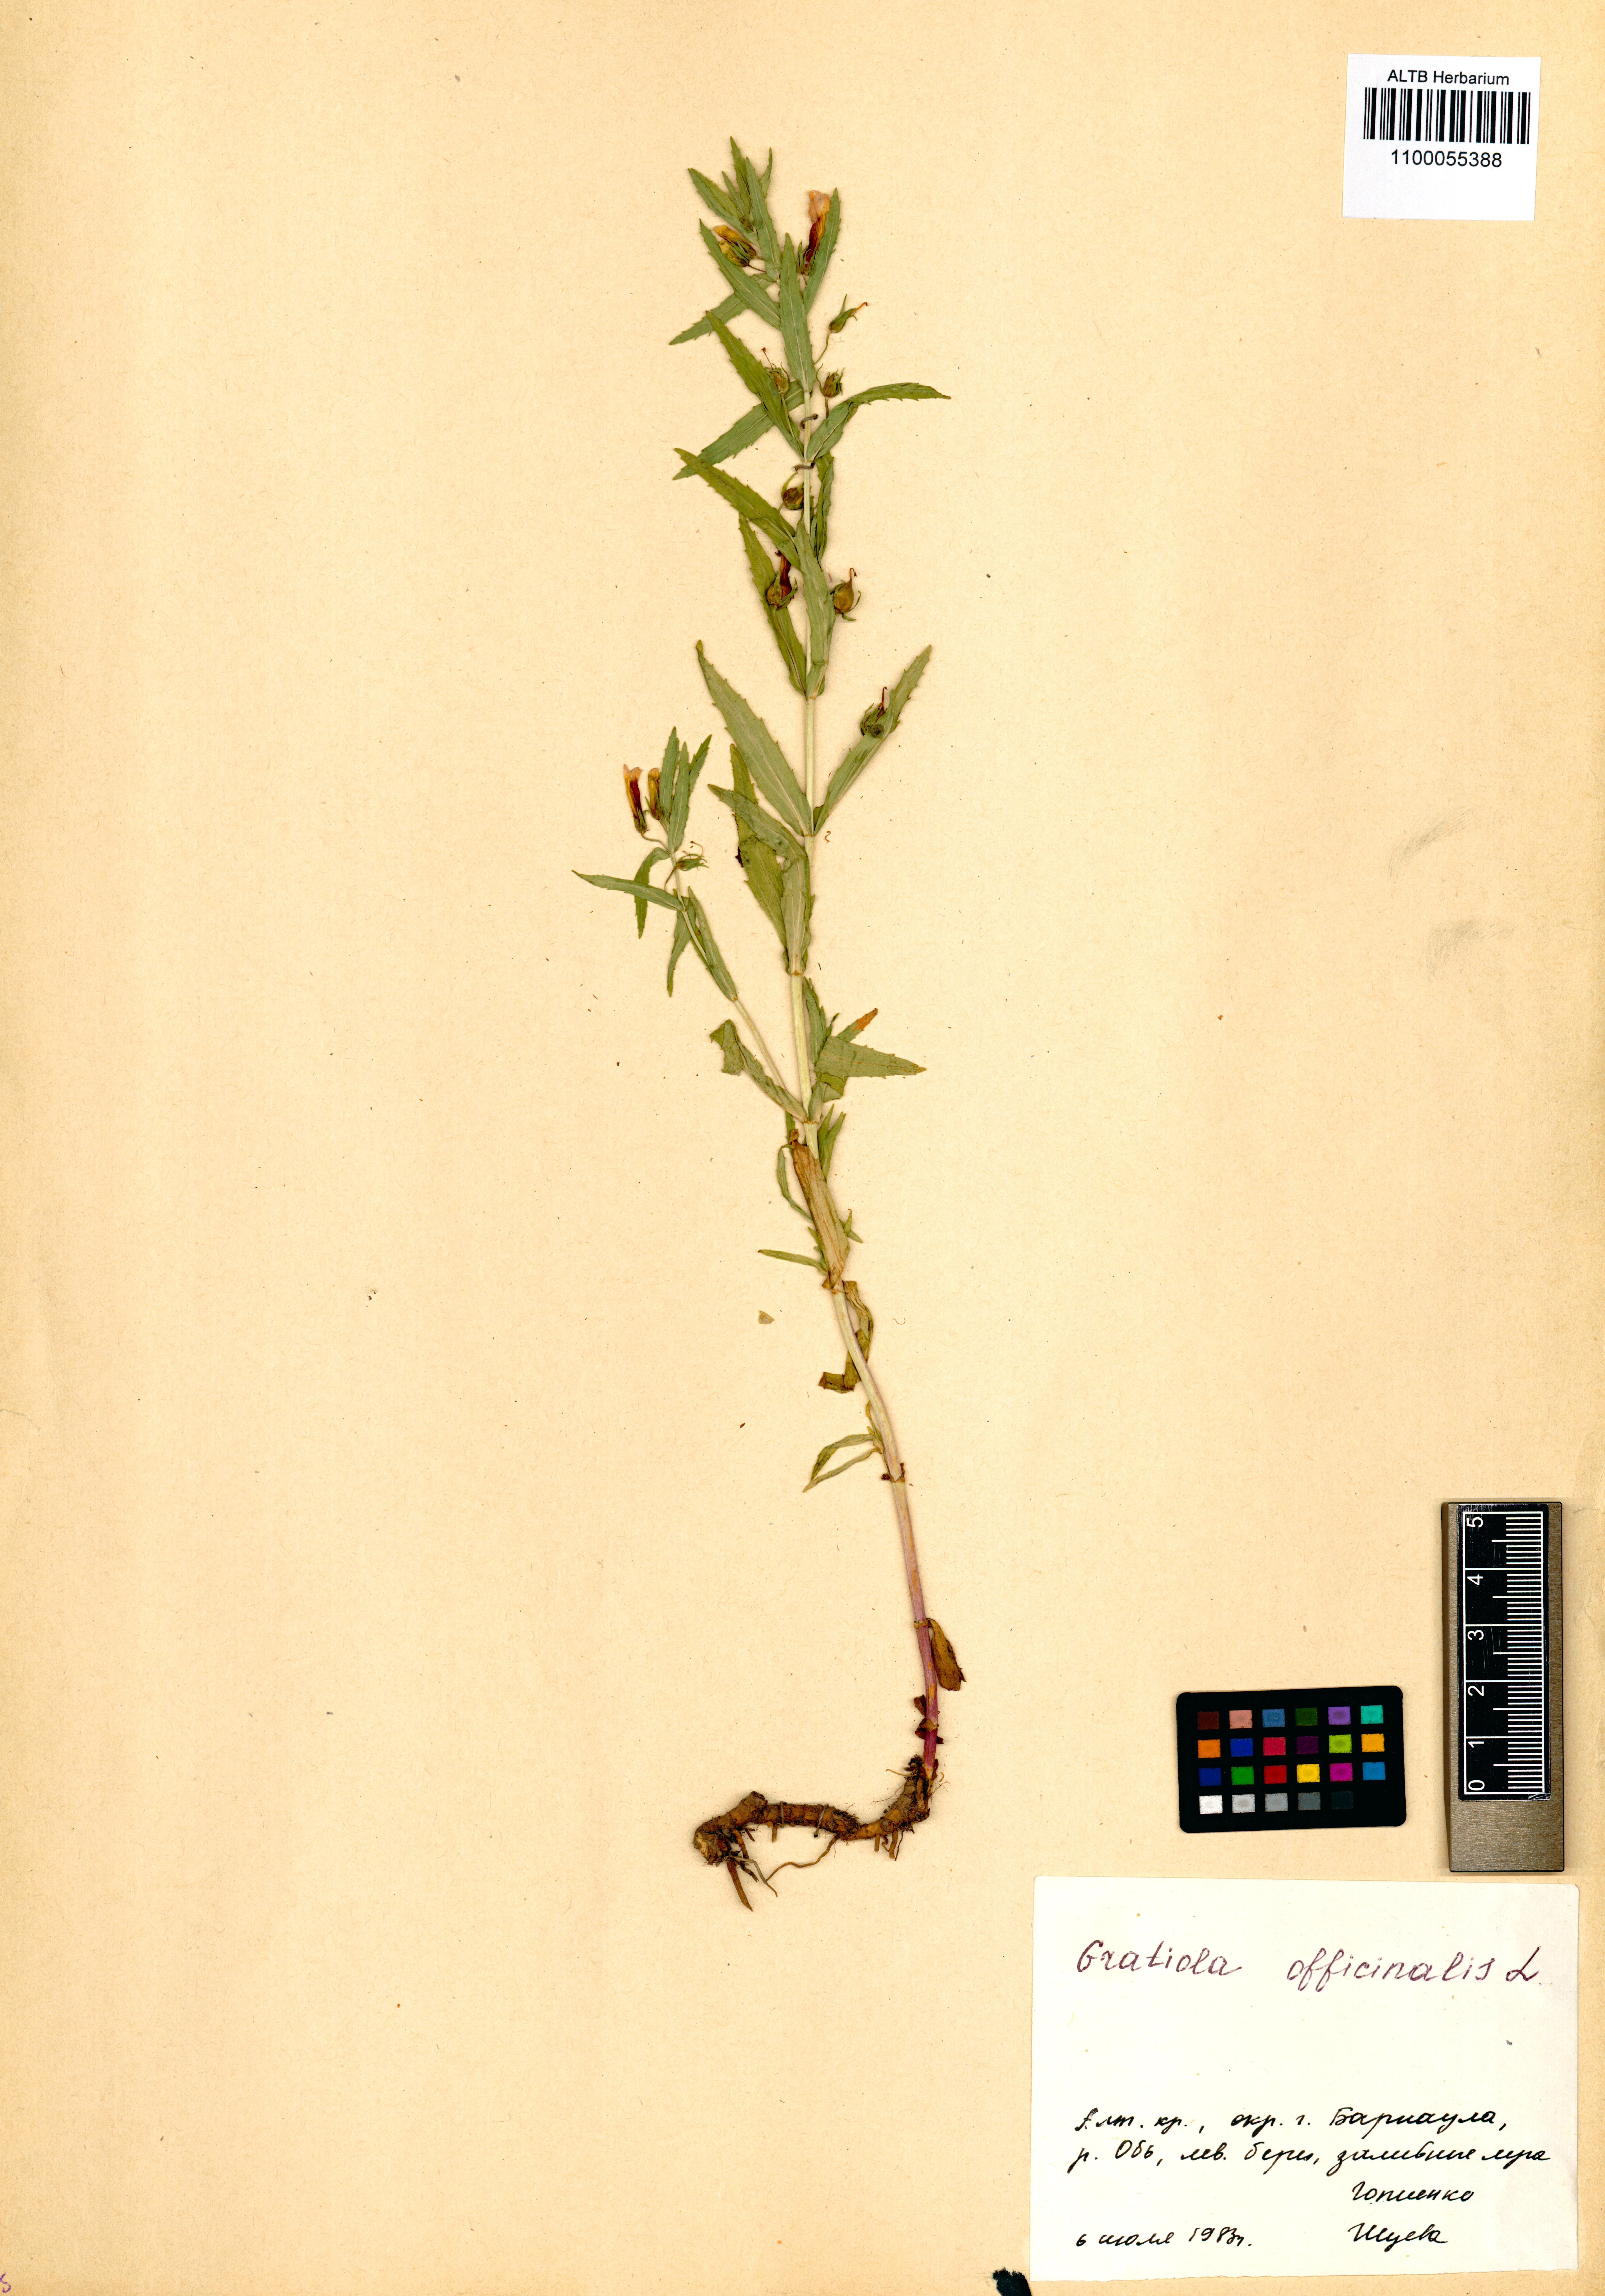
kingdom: Plantae
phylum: Tracheophyta
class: Magnoliopsida
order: Lamiales
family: Plantaginaceae
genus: Gratiola
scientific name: Gratiola officinalis
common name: Gratiola
